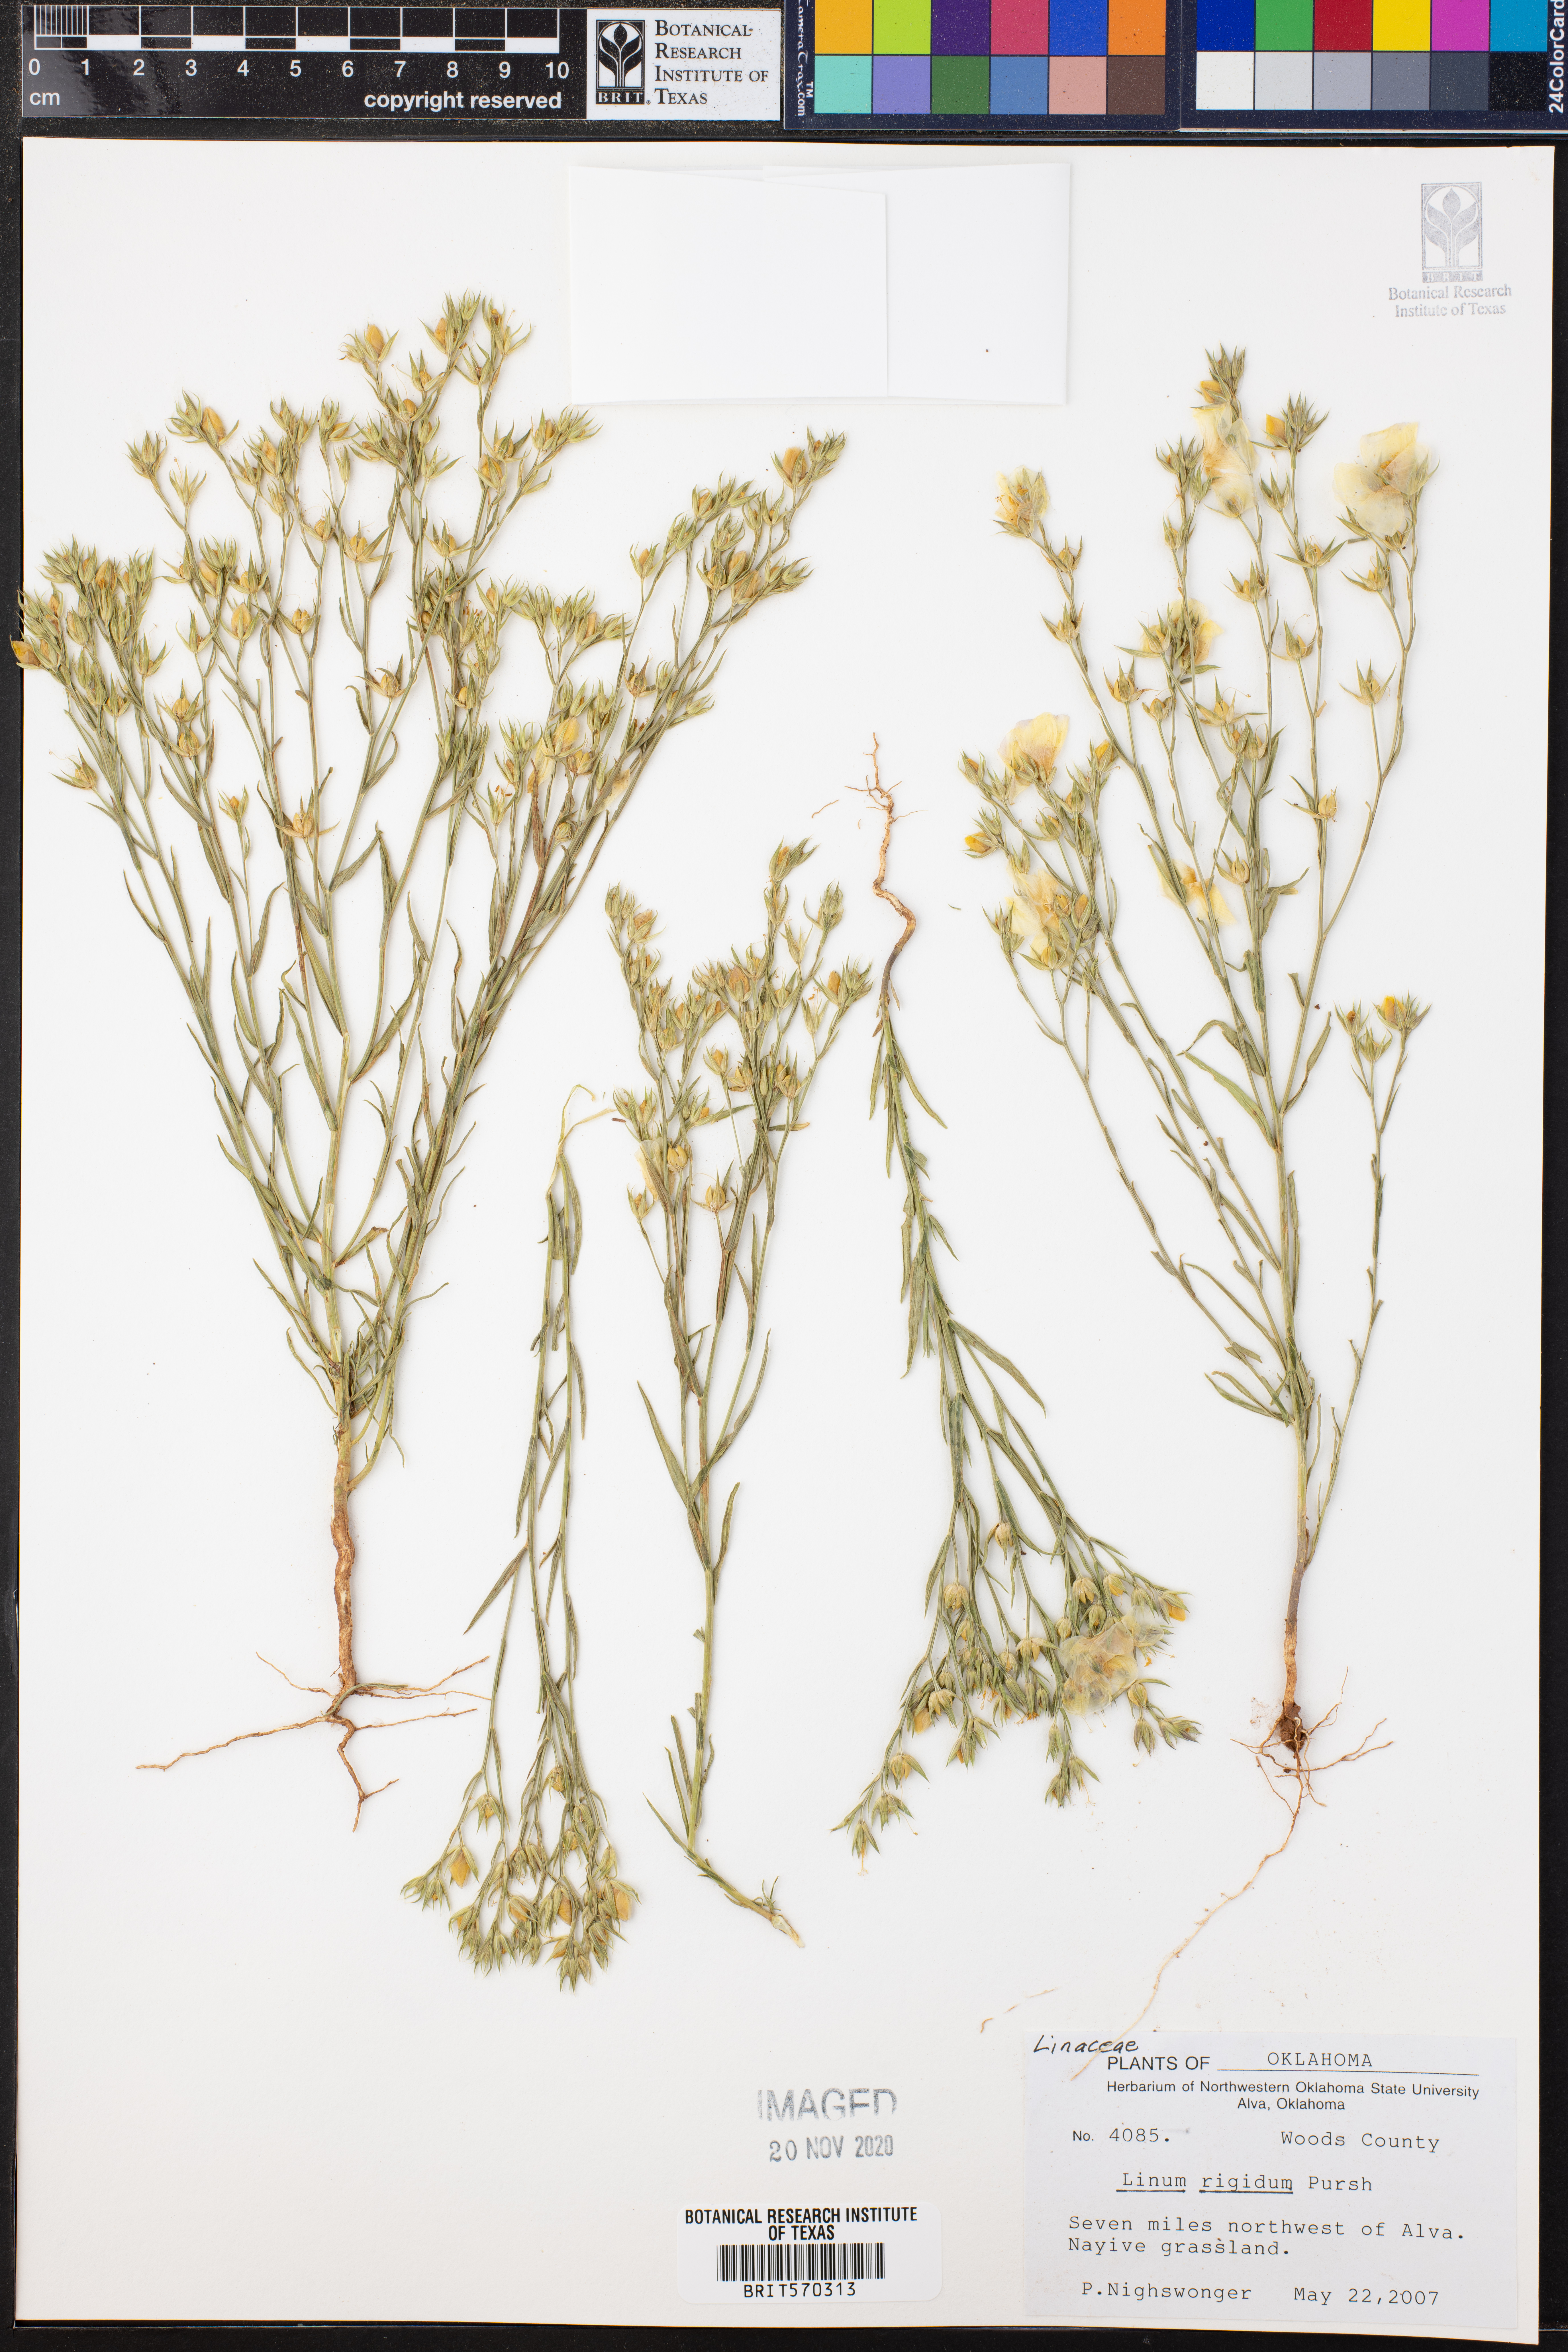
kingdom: Plantae
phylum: Tracheophyta
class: Magnoliopsida
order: Malpighiales
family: Linaceae
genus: Linum
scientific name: Linum rigidum
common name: Stiff-stem flax
